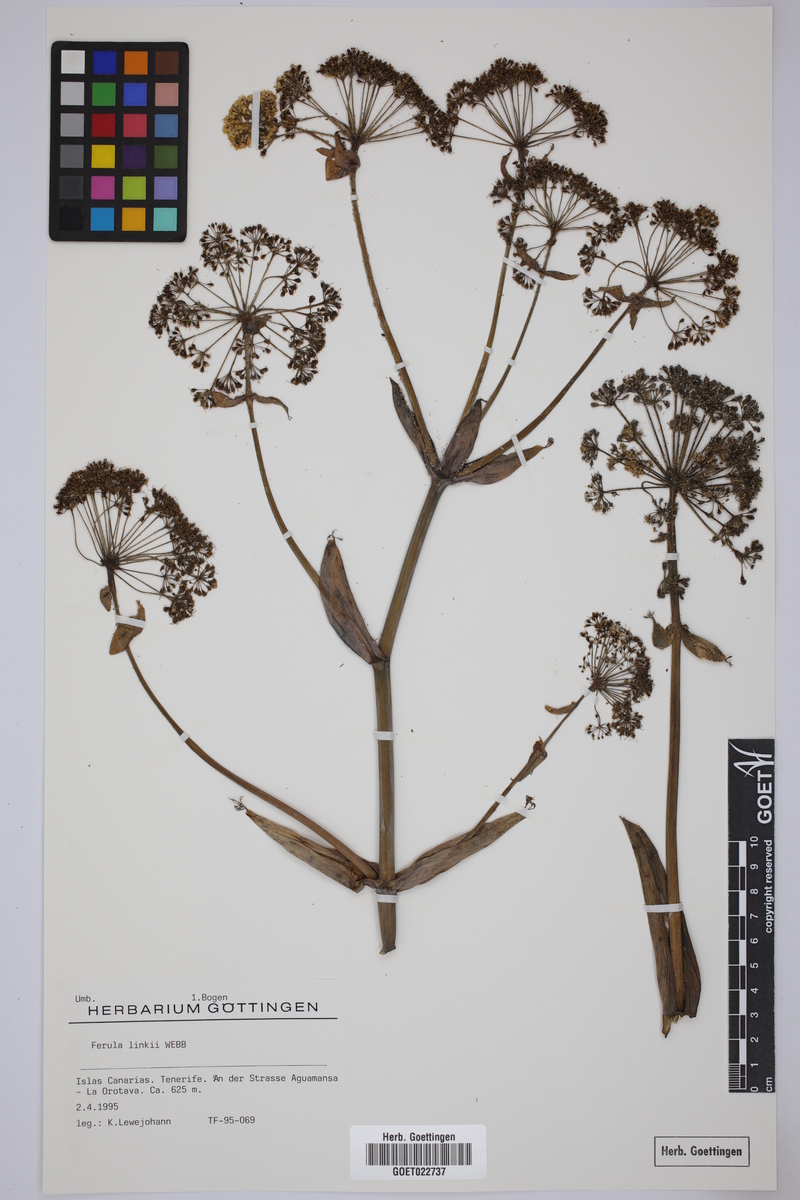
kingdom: Plantae
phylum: Tracheophyta
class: Magnoliopsida
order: Apiales
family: Apiaceae
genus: Ferula
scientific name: Ferula communis
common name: Giant fennel
